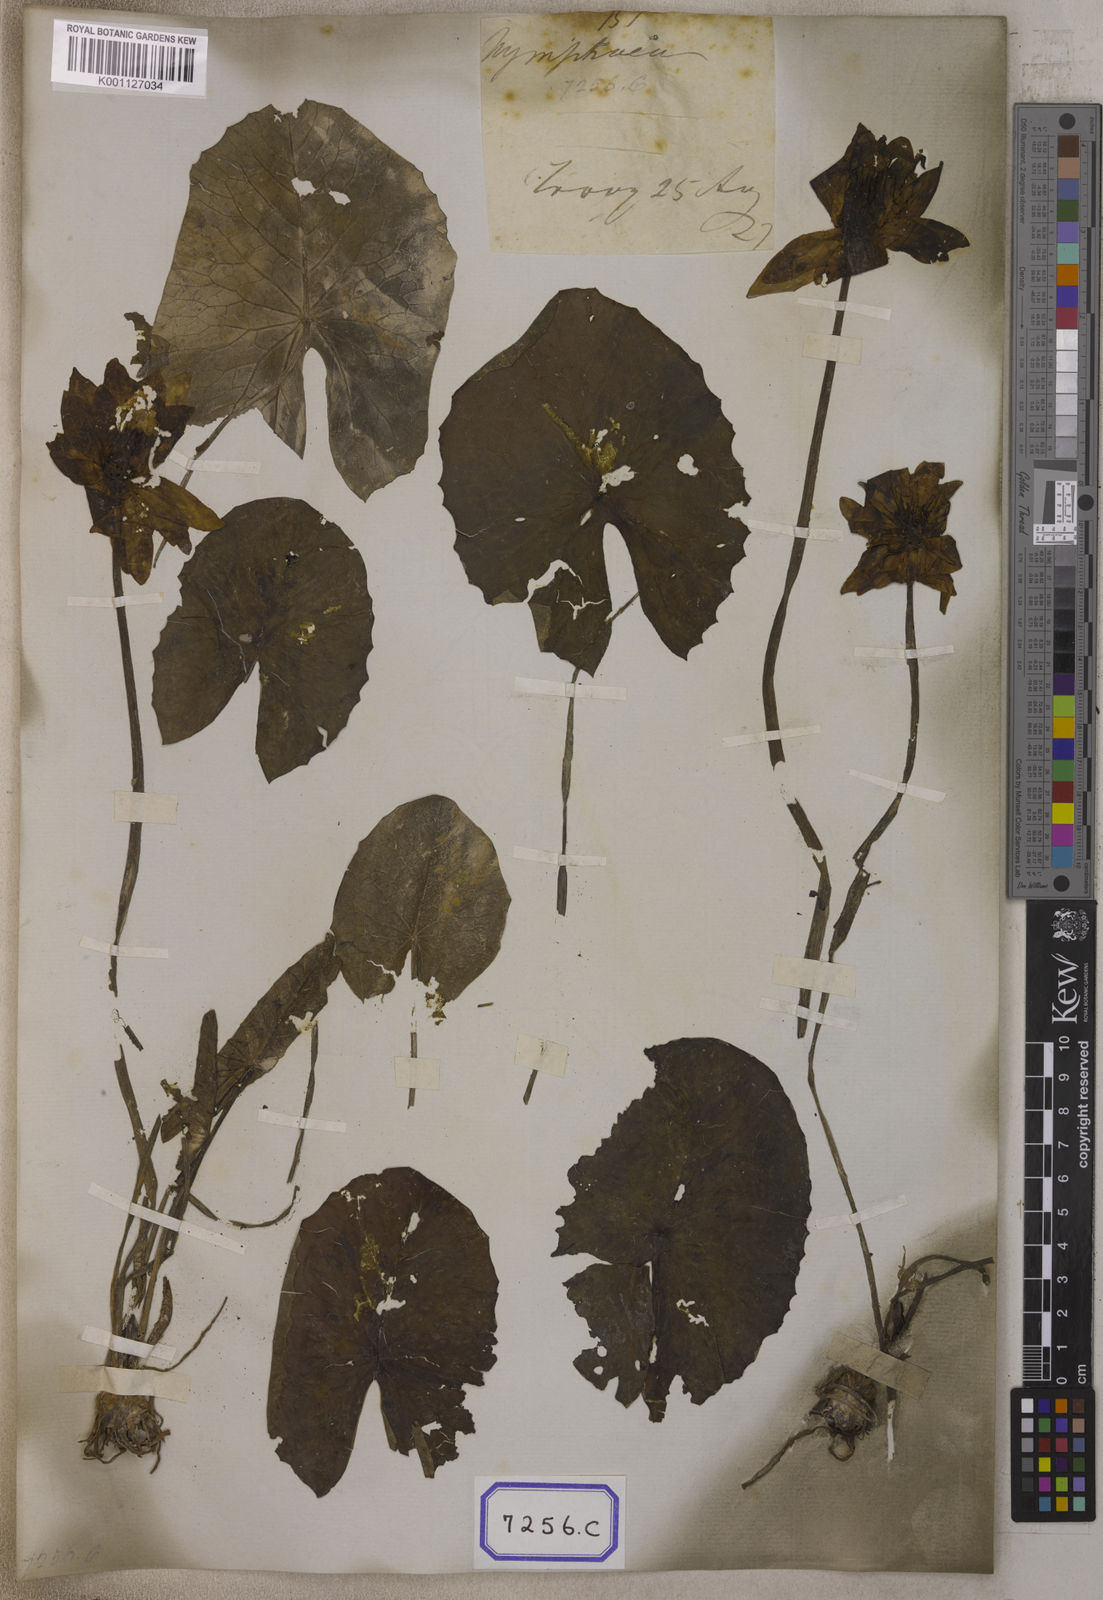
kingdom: Plantae
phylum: Tracheophyta
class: Magnoliopsida
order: Nymphaeales
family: Nymphaeaceae
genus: Nymphaea
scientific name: Nymphaea pubescens
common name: Hairy water lily
